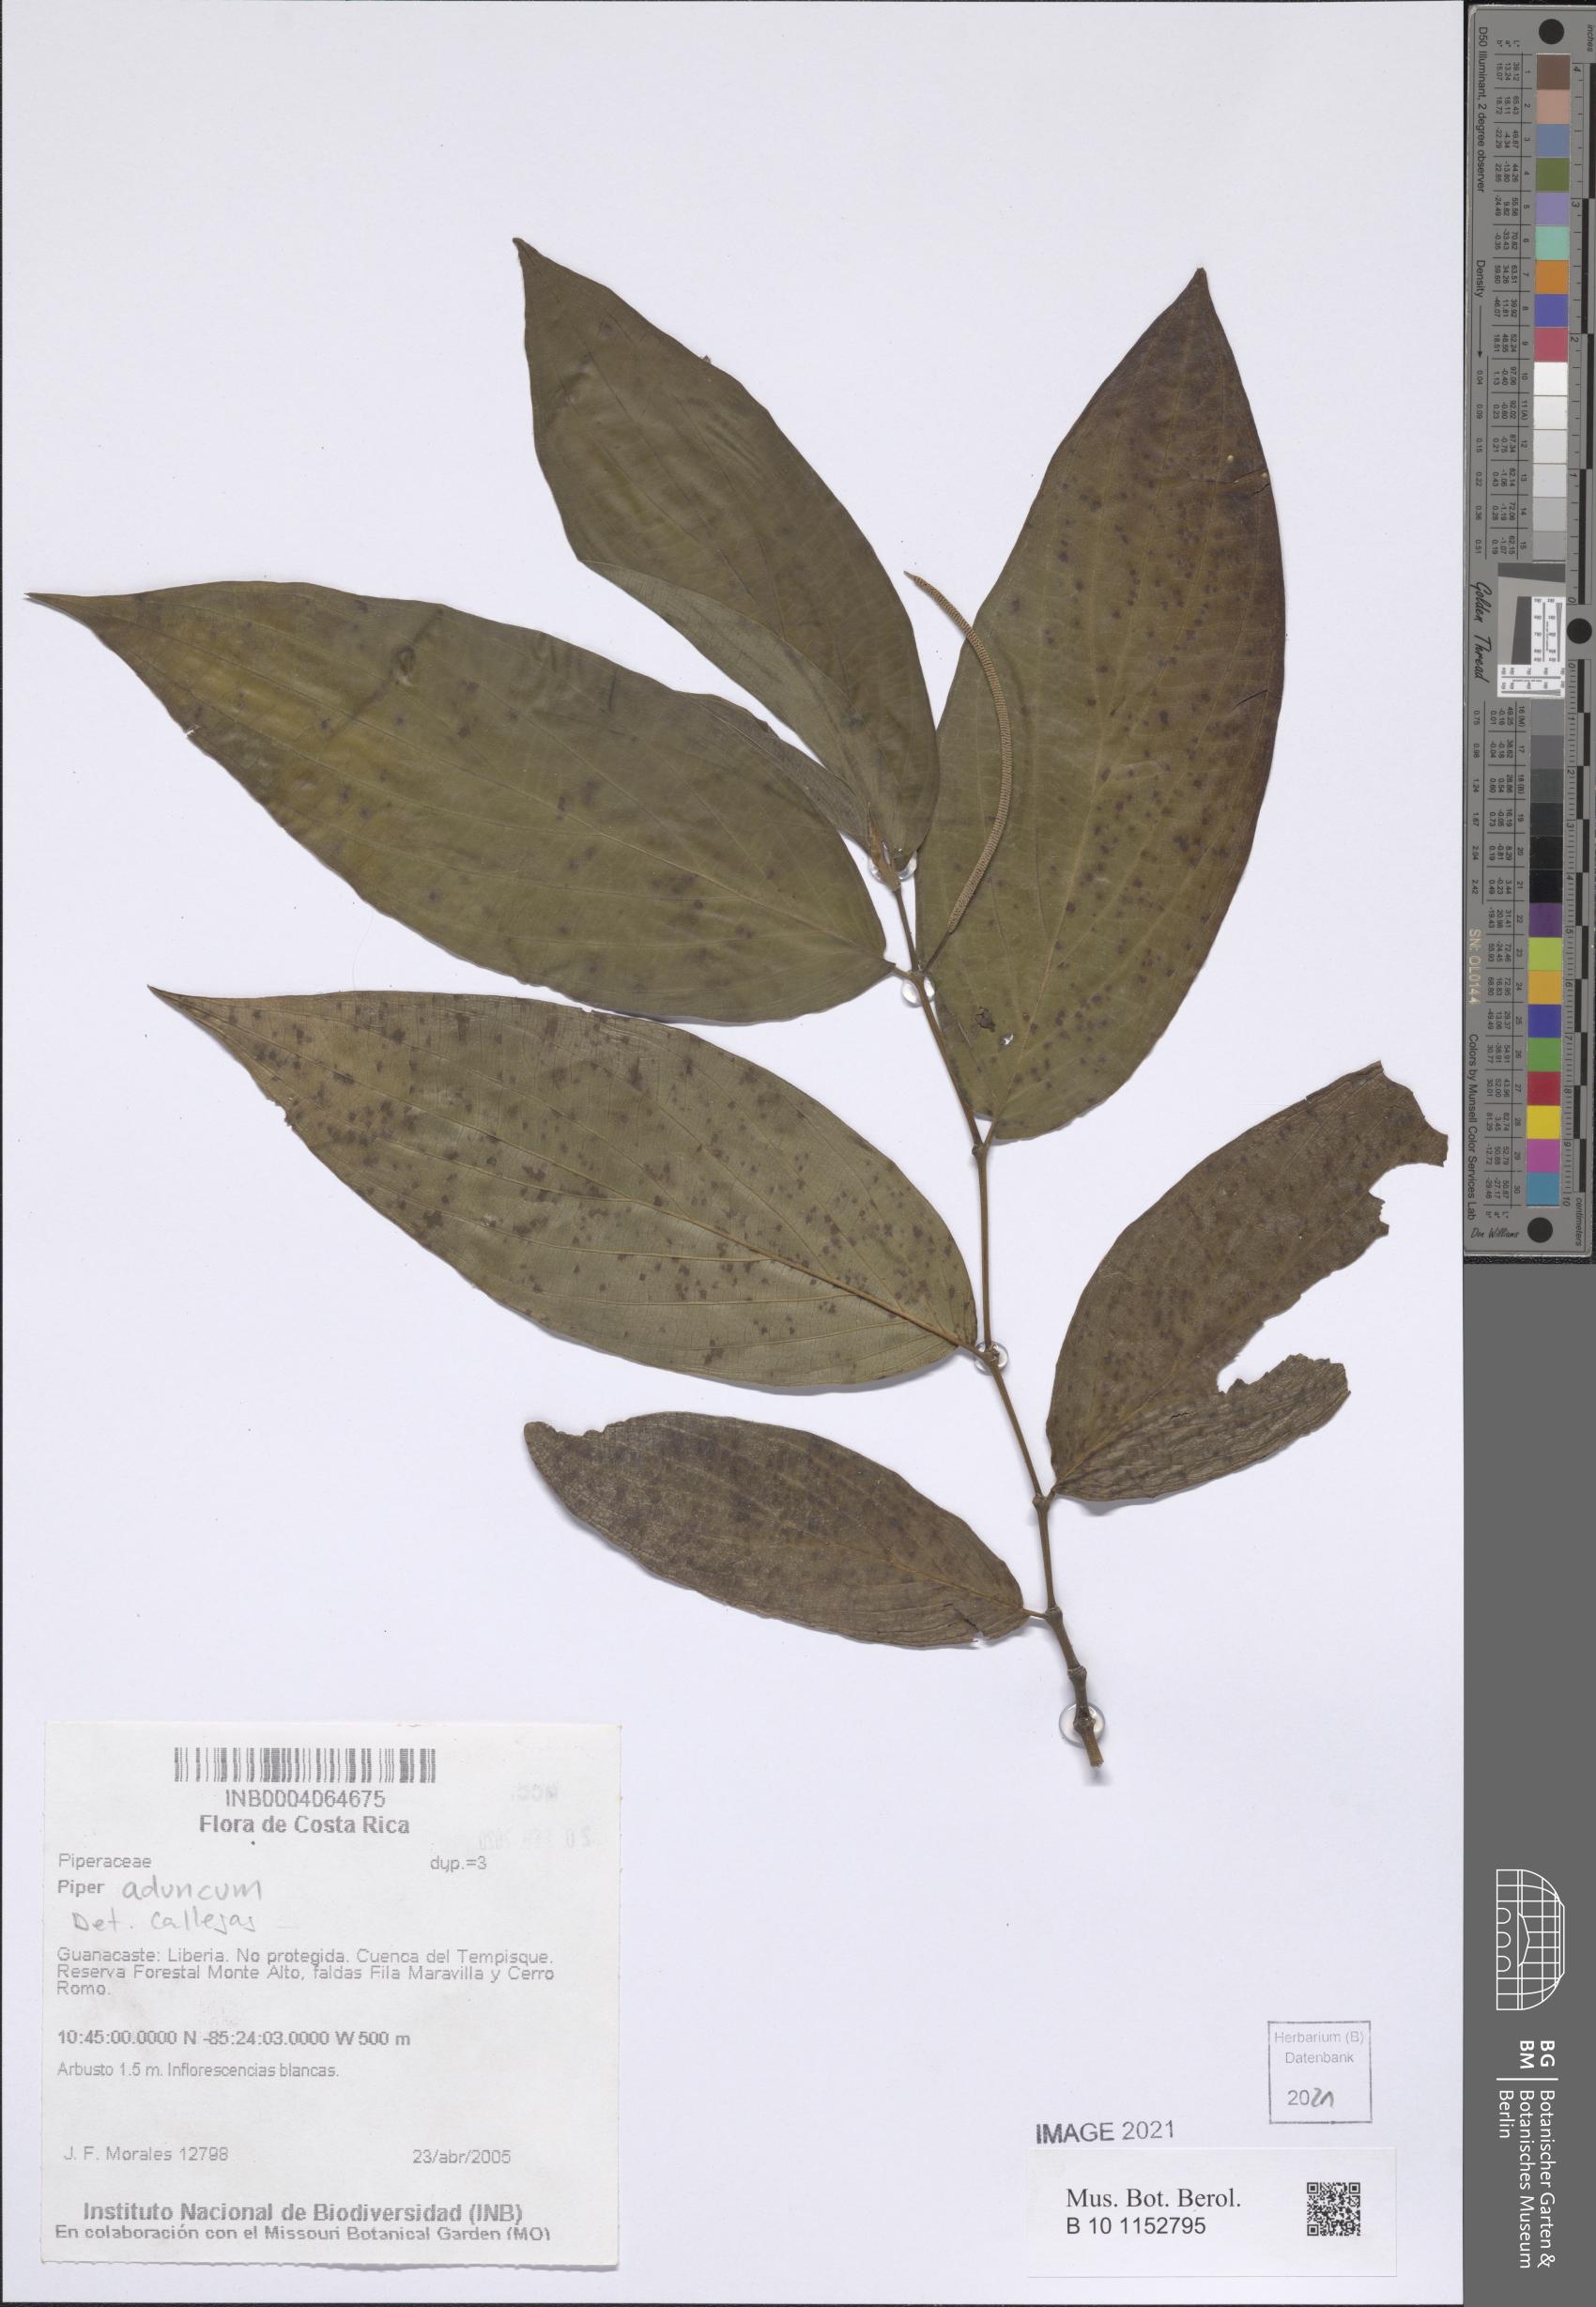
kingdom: Plantae
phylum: Tracheophyta
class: Magnoliopsida
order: Piperales
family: Piperaceae
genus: Piper
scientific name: Piper
